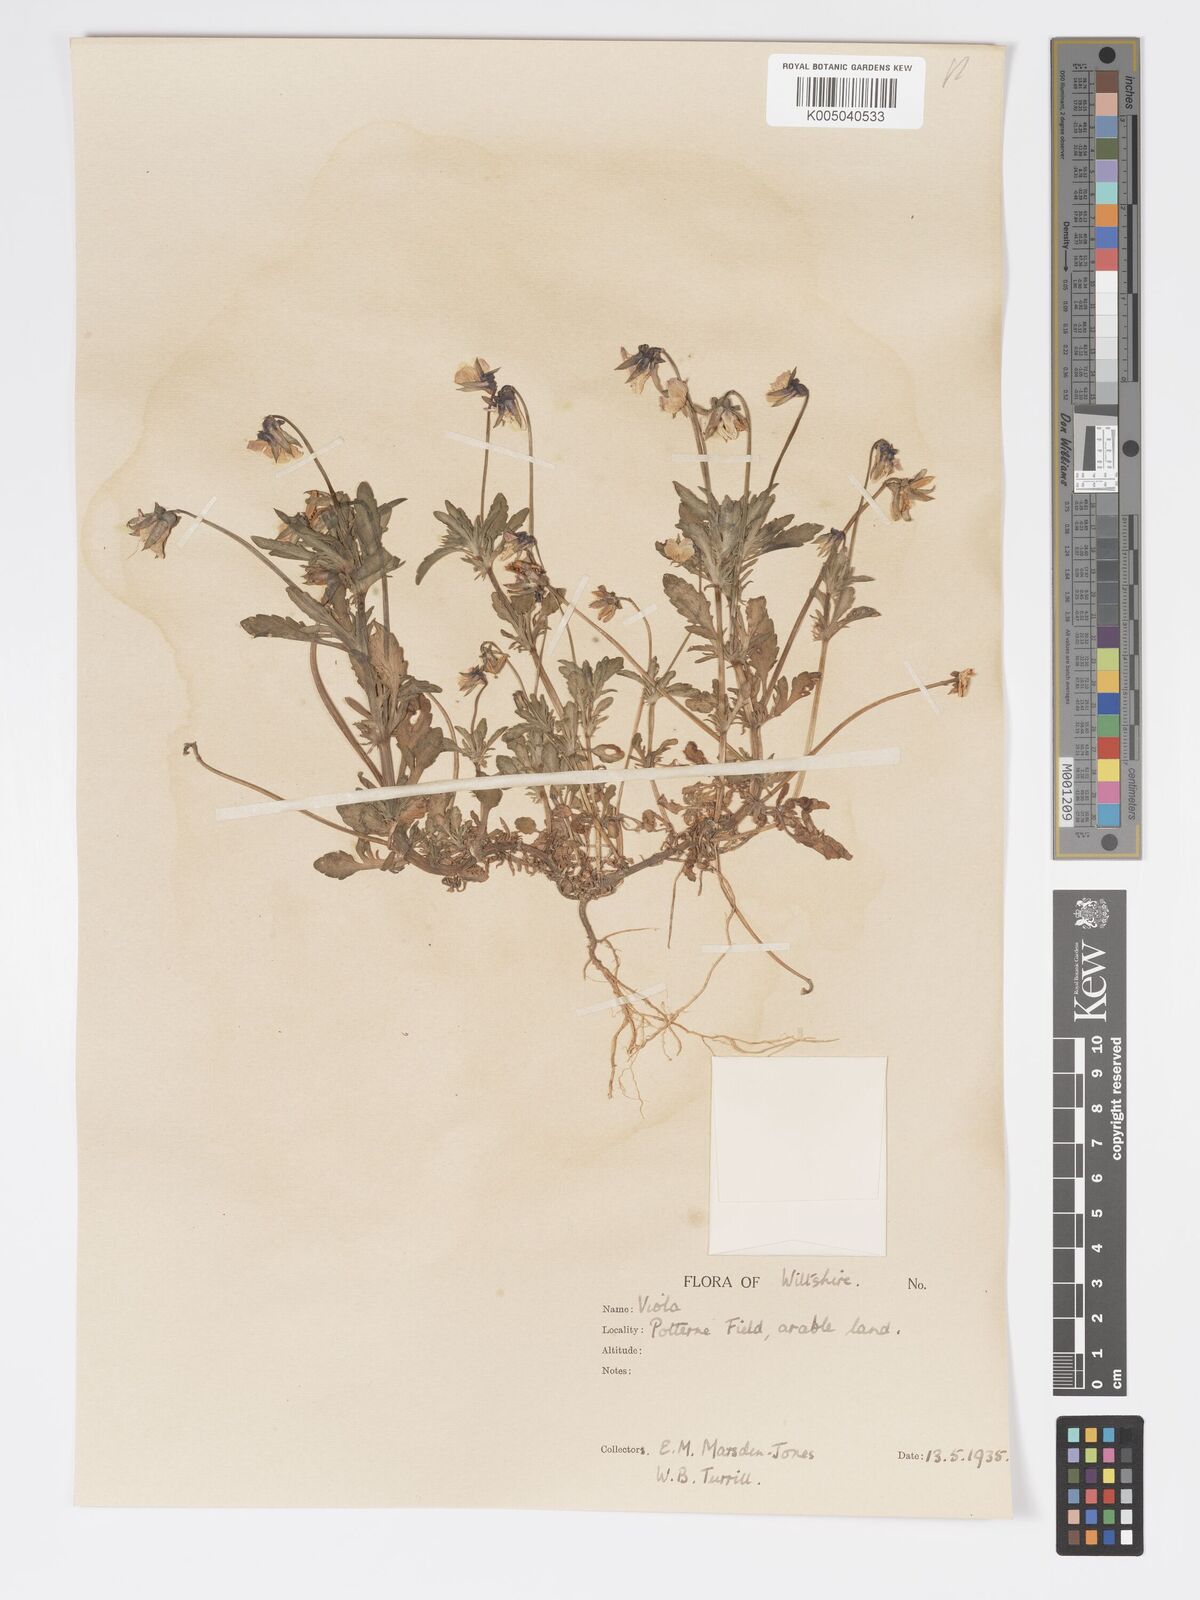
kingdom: Plantae
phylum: Tracheophyta
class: Magnoliopsida
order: Malpighiales
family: Violaceae
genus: Viola
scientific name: Viola
